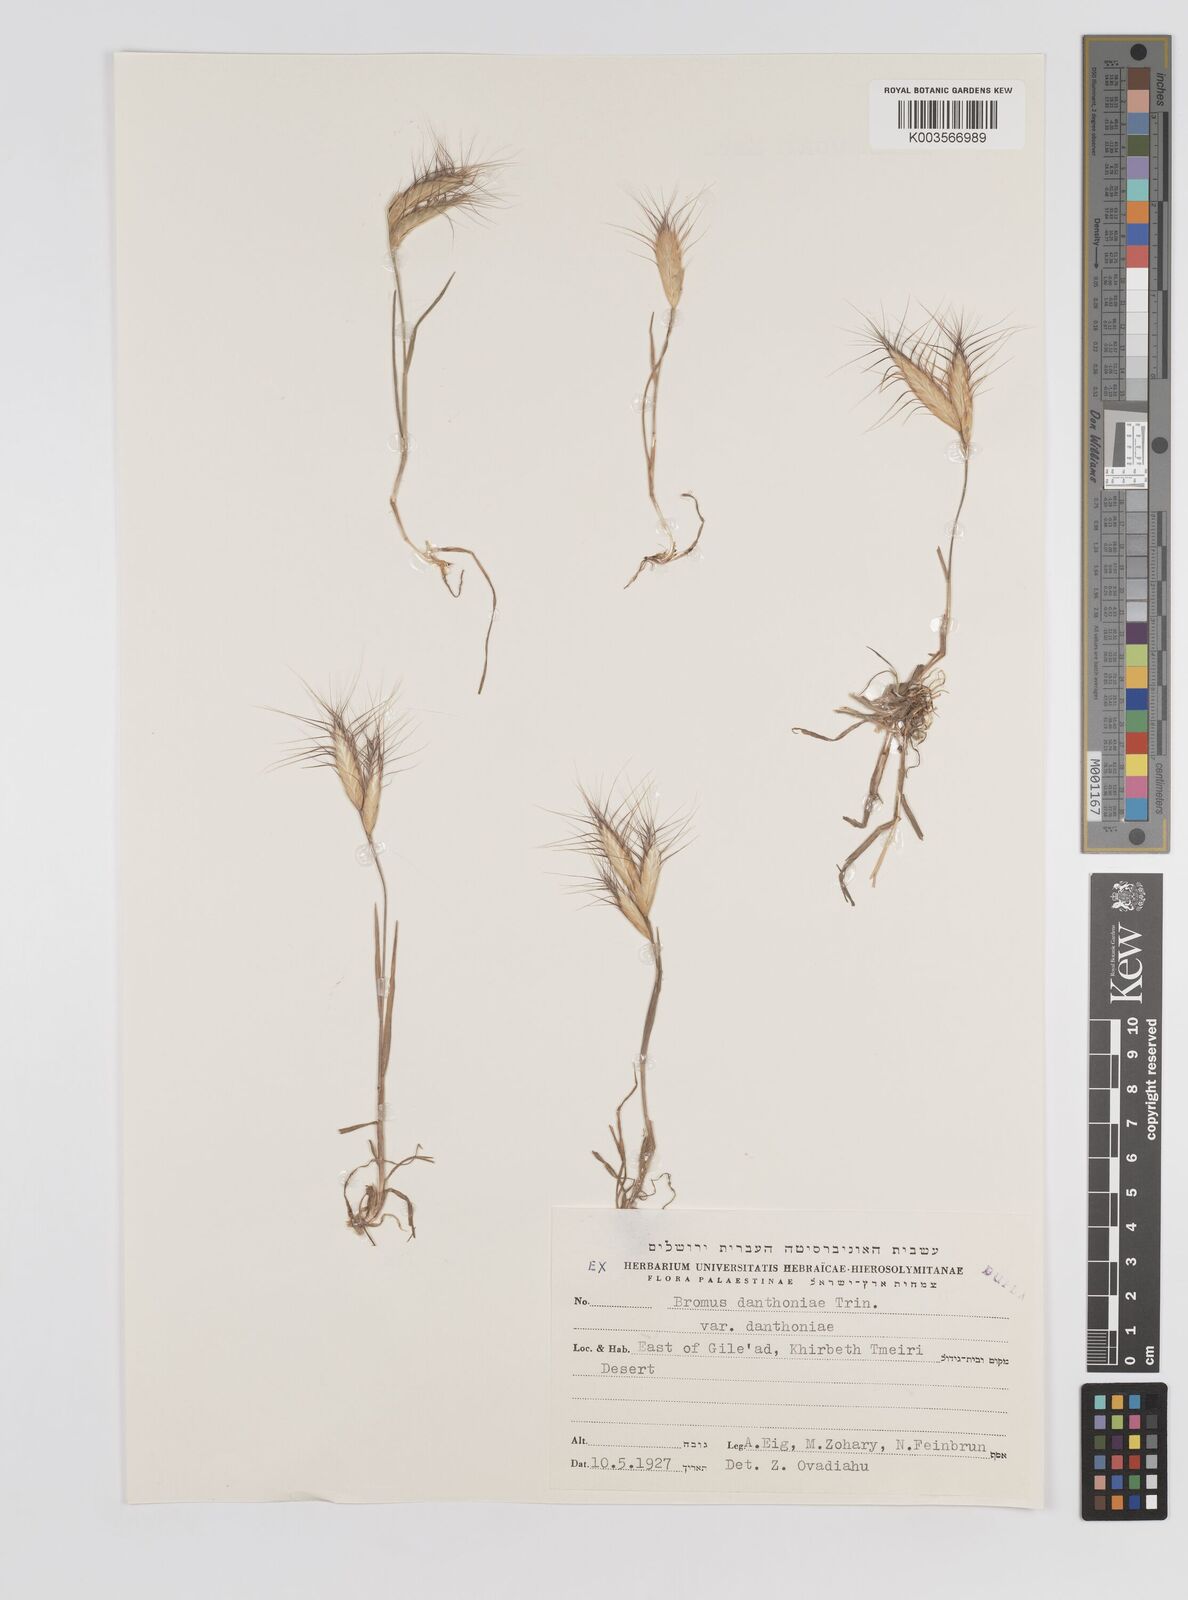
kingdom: Plantae
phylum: Tracheophyta
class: Liliopsida
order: Poales
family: Poaceae
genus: Bromus
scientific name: Bromus danthoniae
